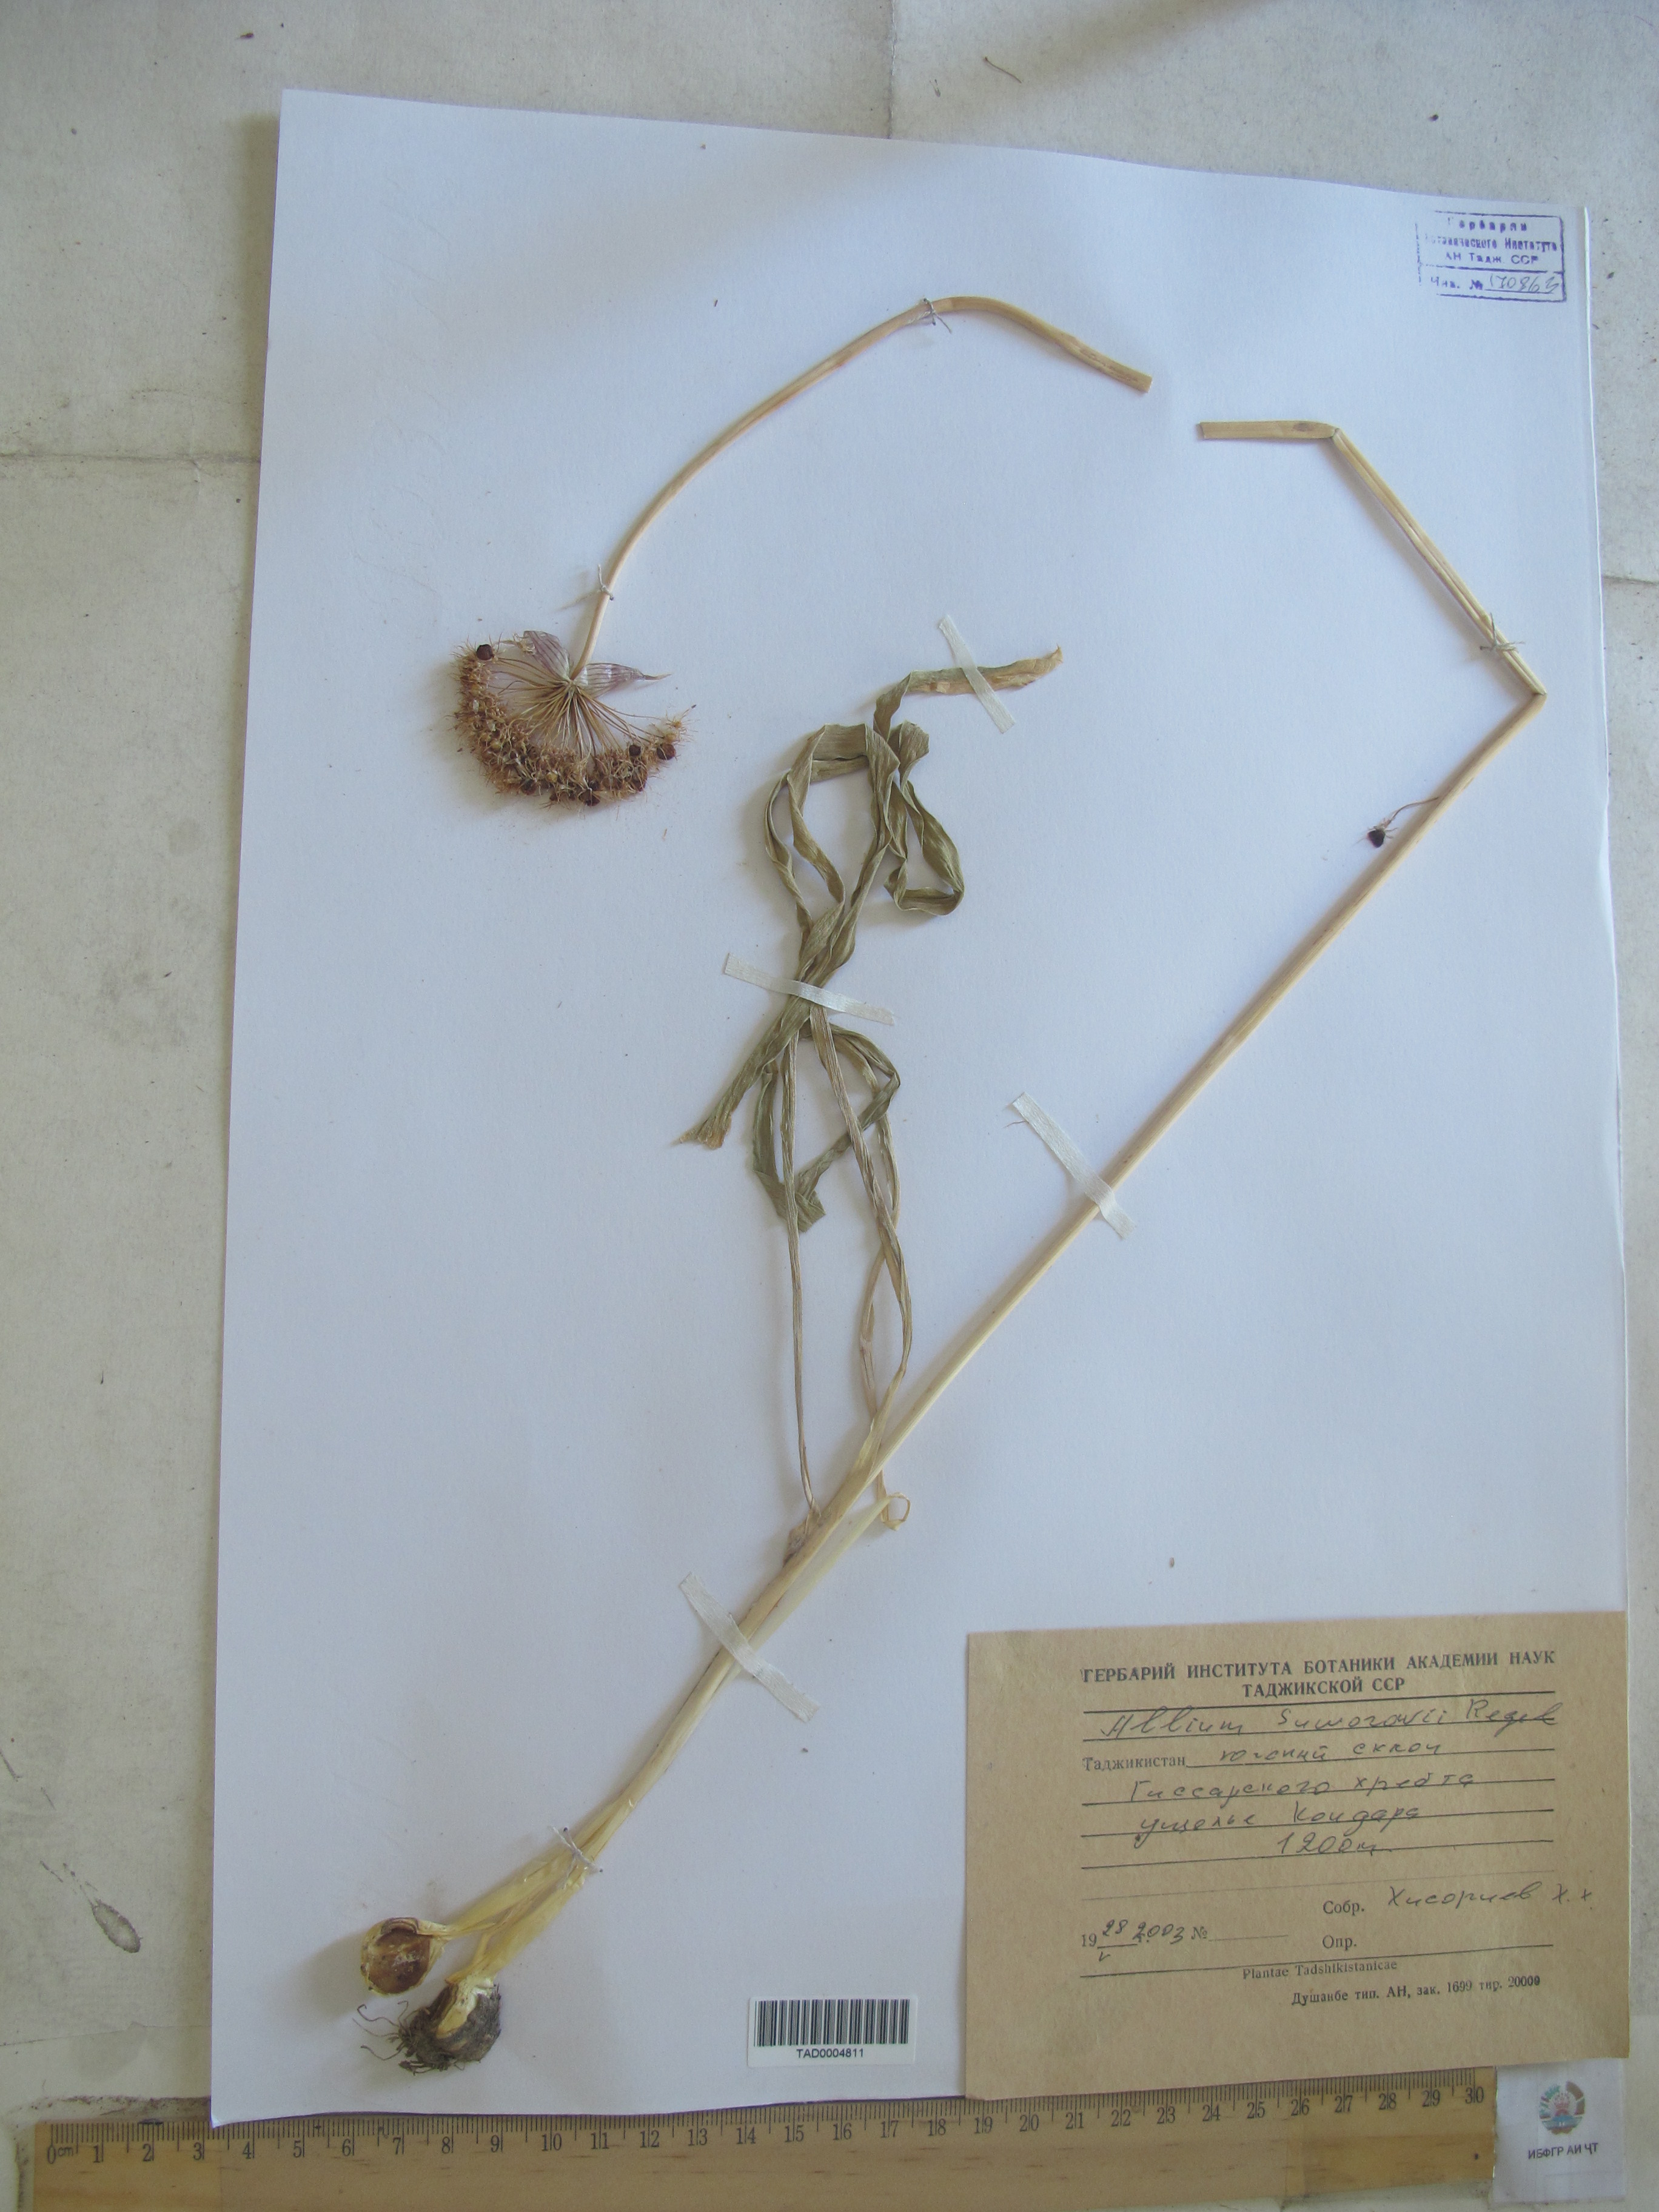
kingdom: Plantae
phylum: Tracheophyta
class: Liliopsida
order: Asparagales
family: Amaryllidaceae
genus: Allium
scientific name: Allium suworowii
